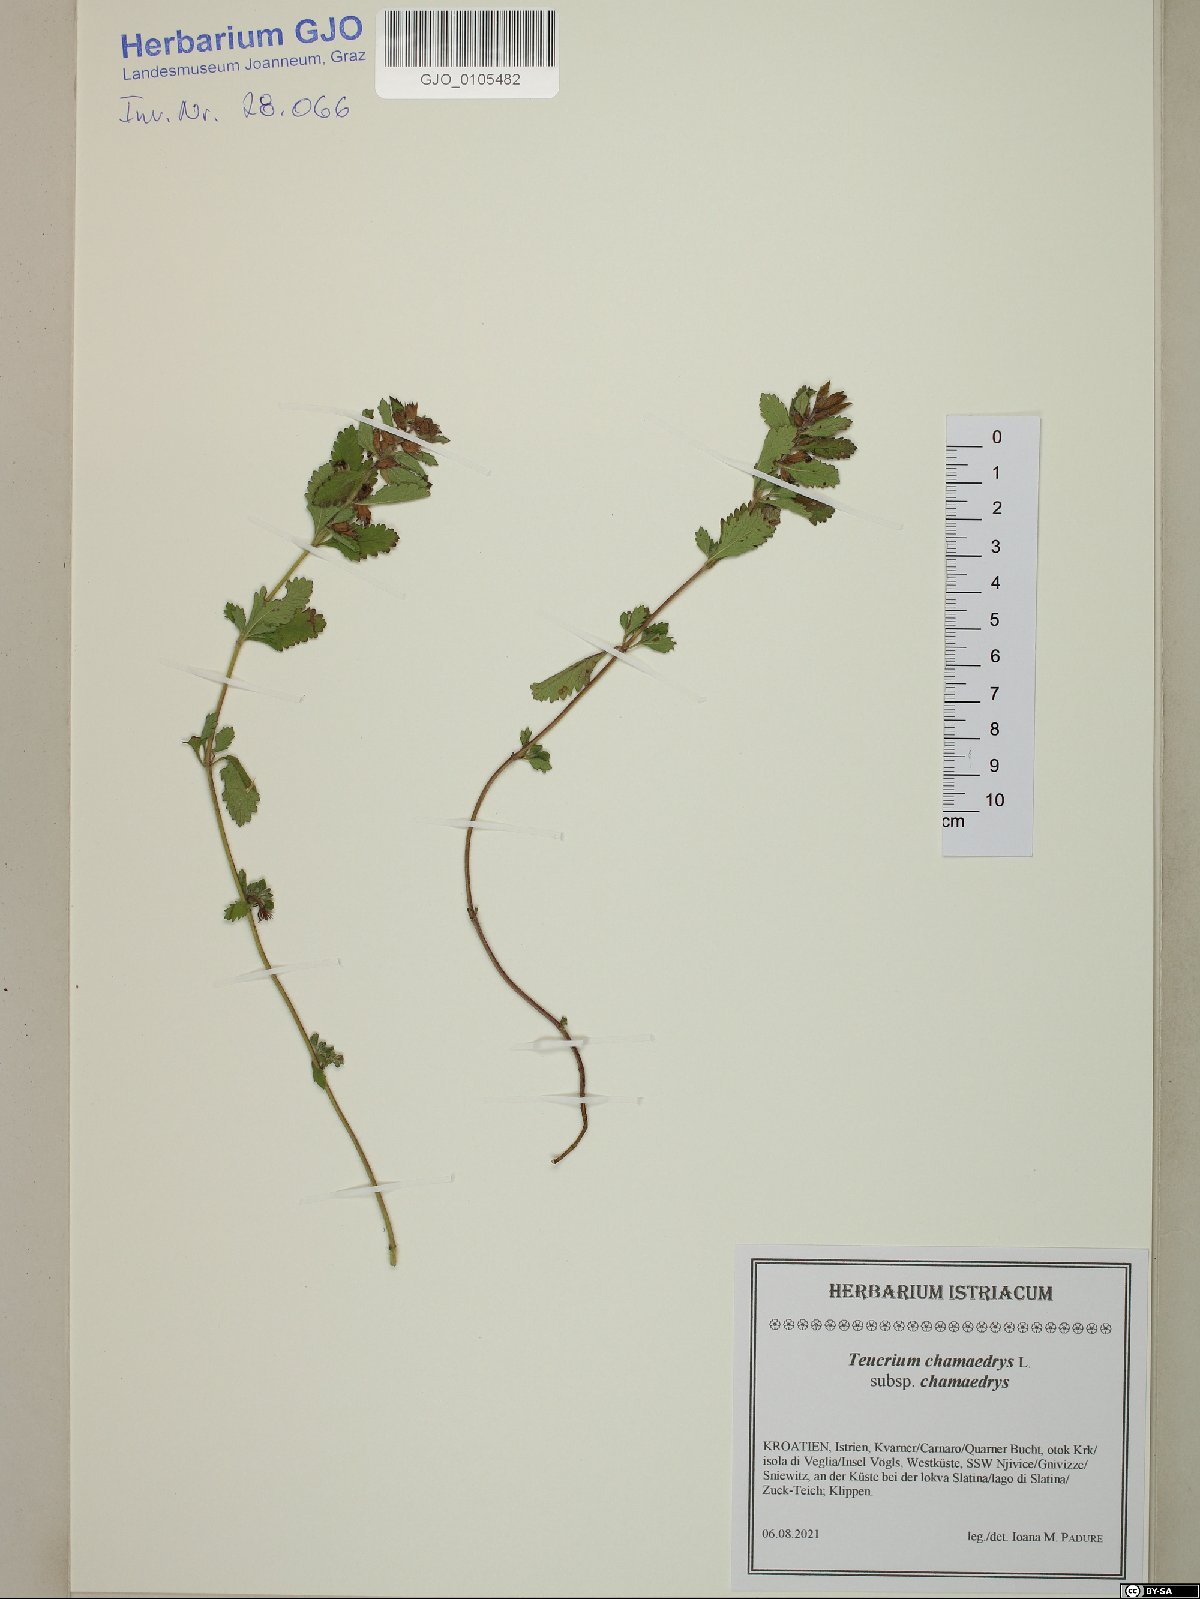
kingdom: Plantae
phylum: Tracheophyta
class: Magnoliopsida
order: Lamiales
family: Lamiaceae
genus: Teucrium
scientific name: Teucrium chamaedrys
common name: Wall germander
